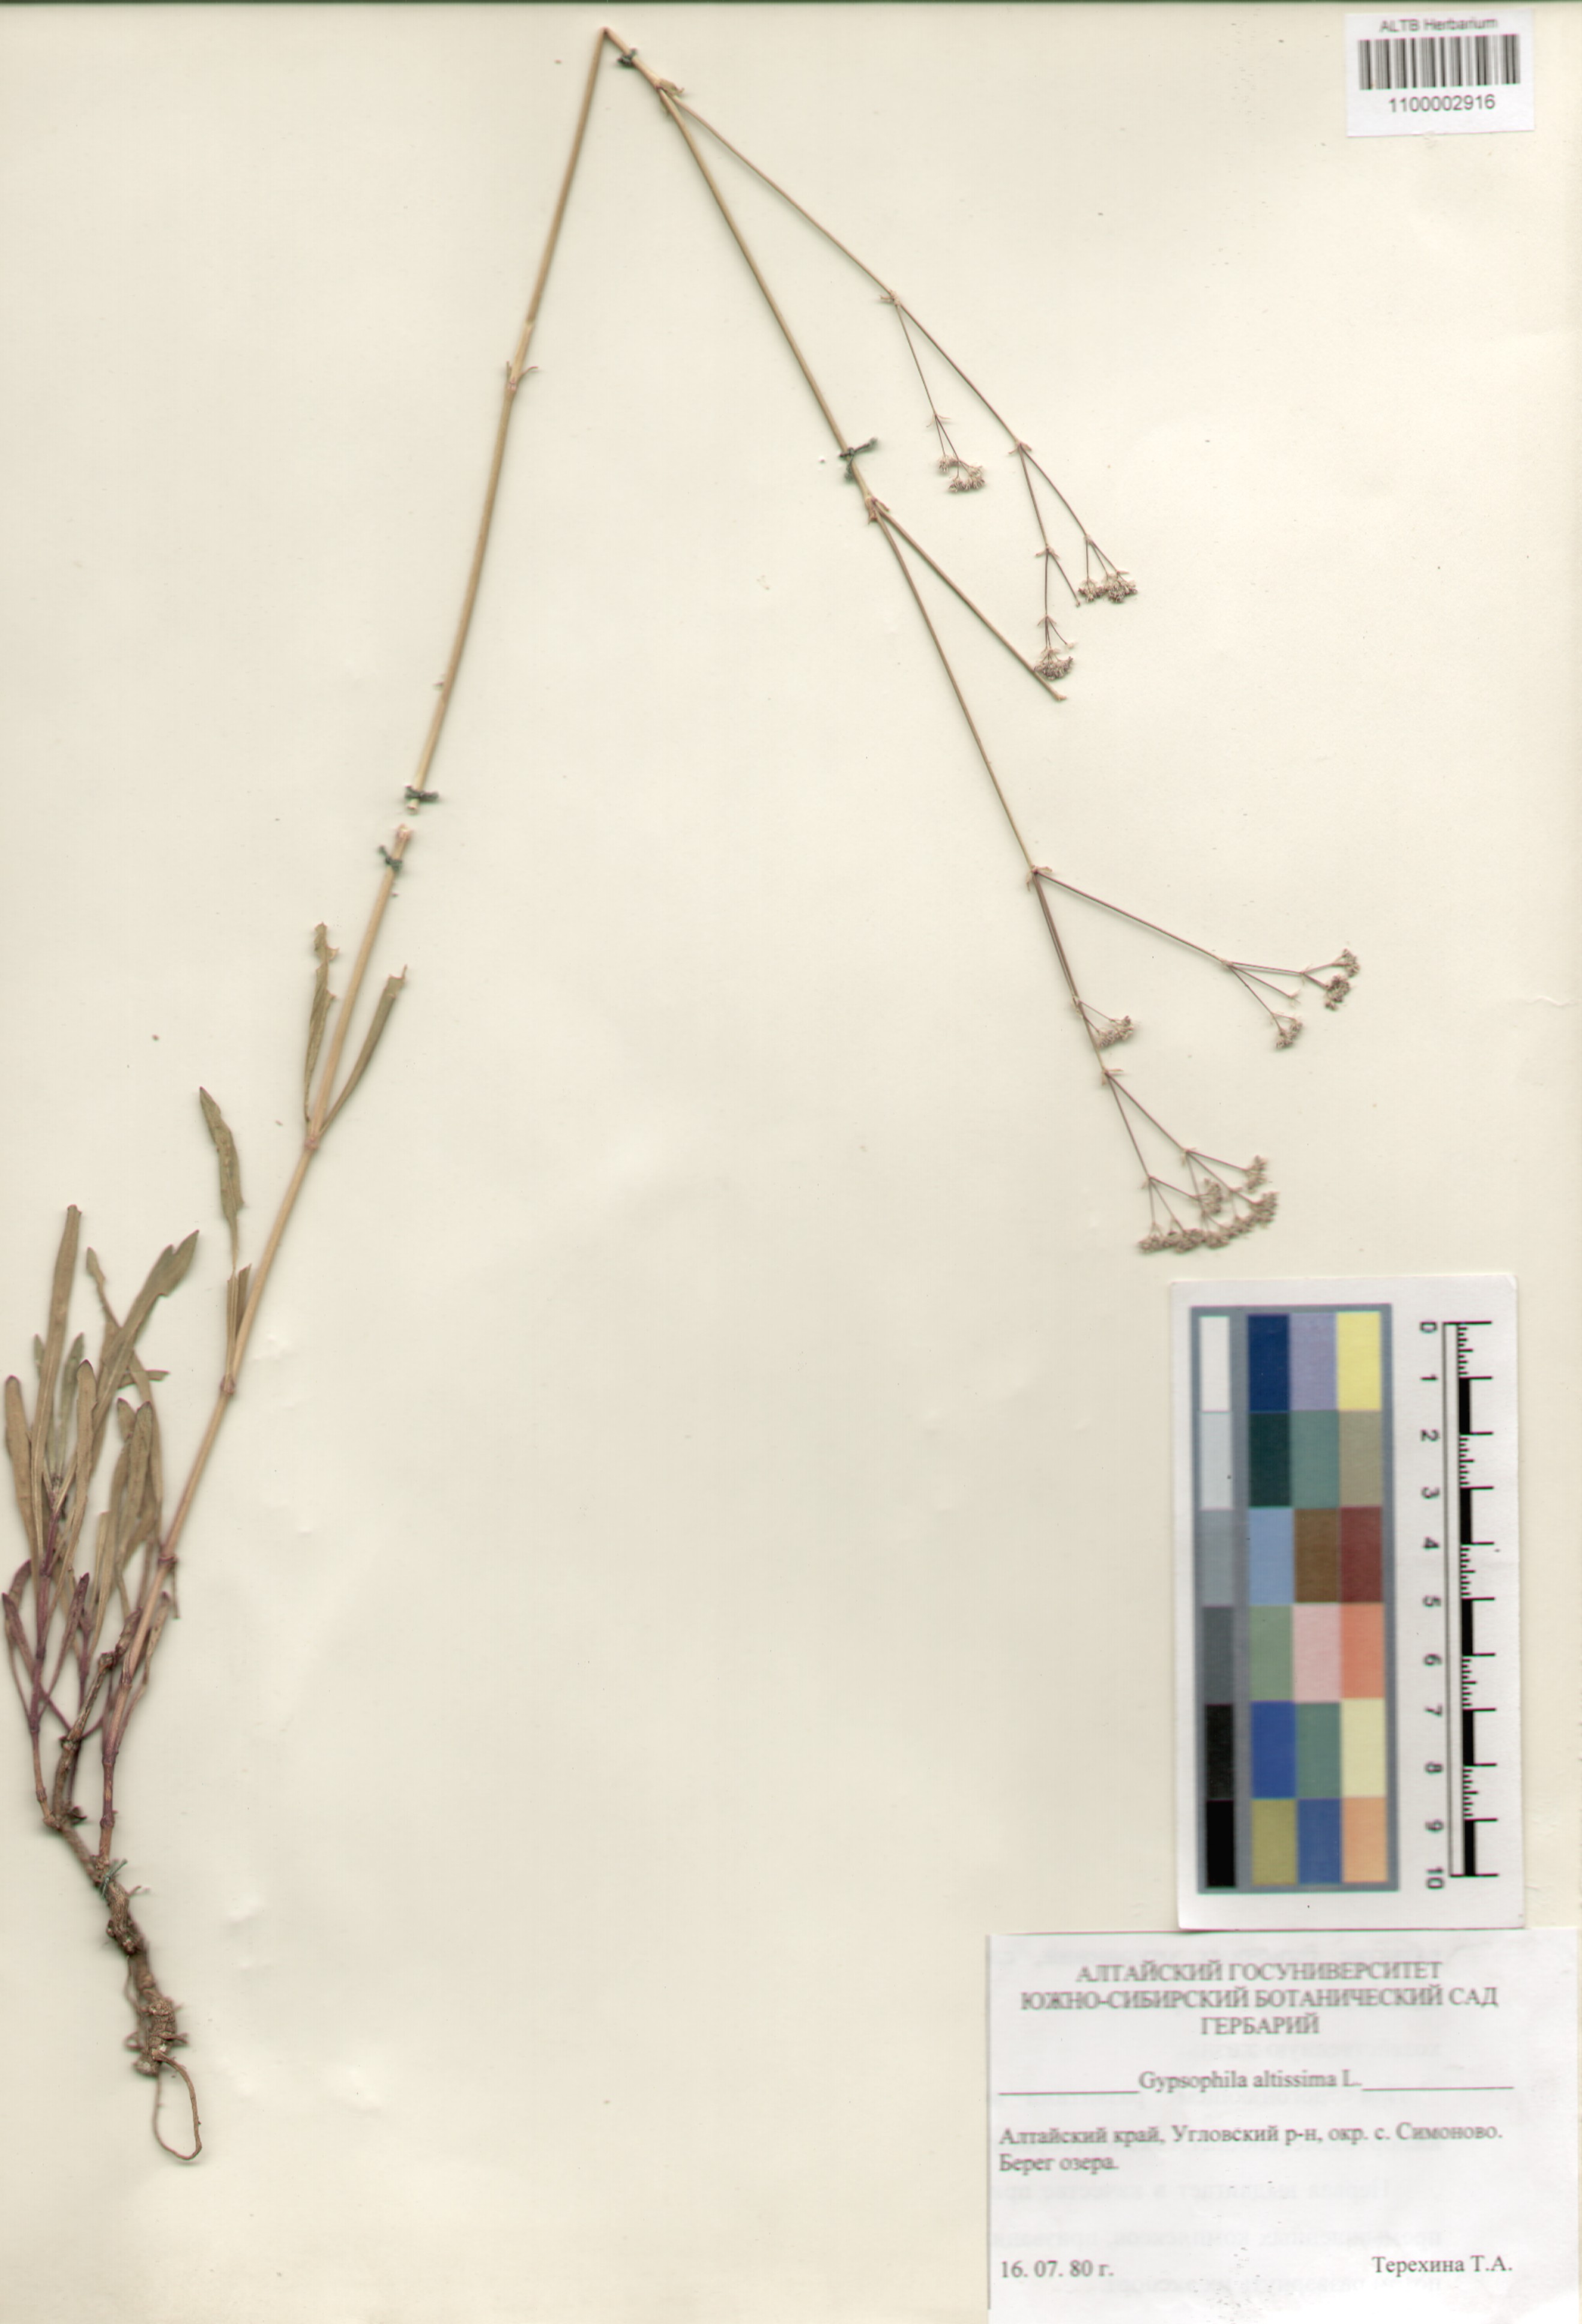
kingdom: Plantae
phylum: Tracheophyta
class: Magnoliopsida
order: Caryophyllales
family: Caryophyllaceae
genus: Gypsophila
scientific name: Gypsophila altissima
